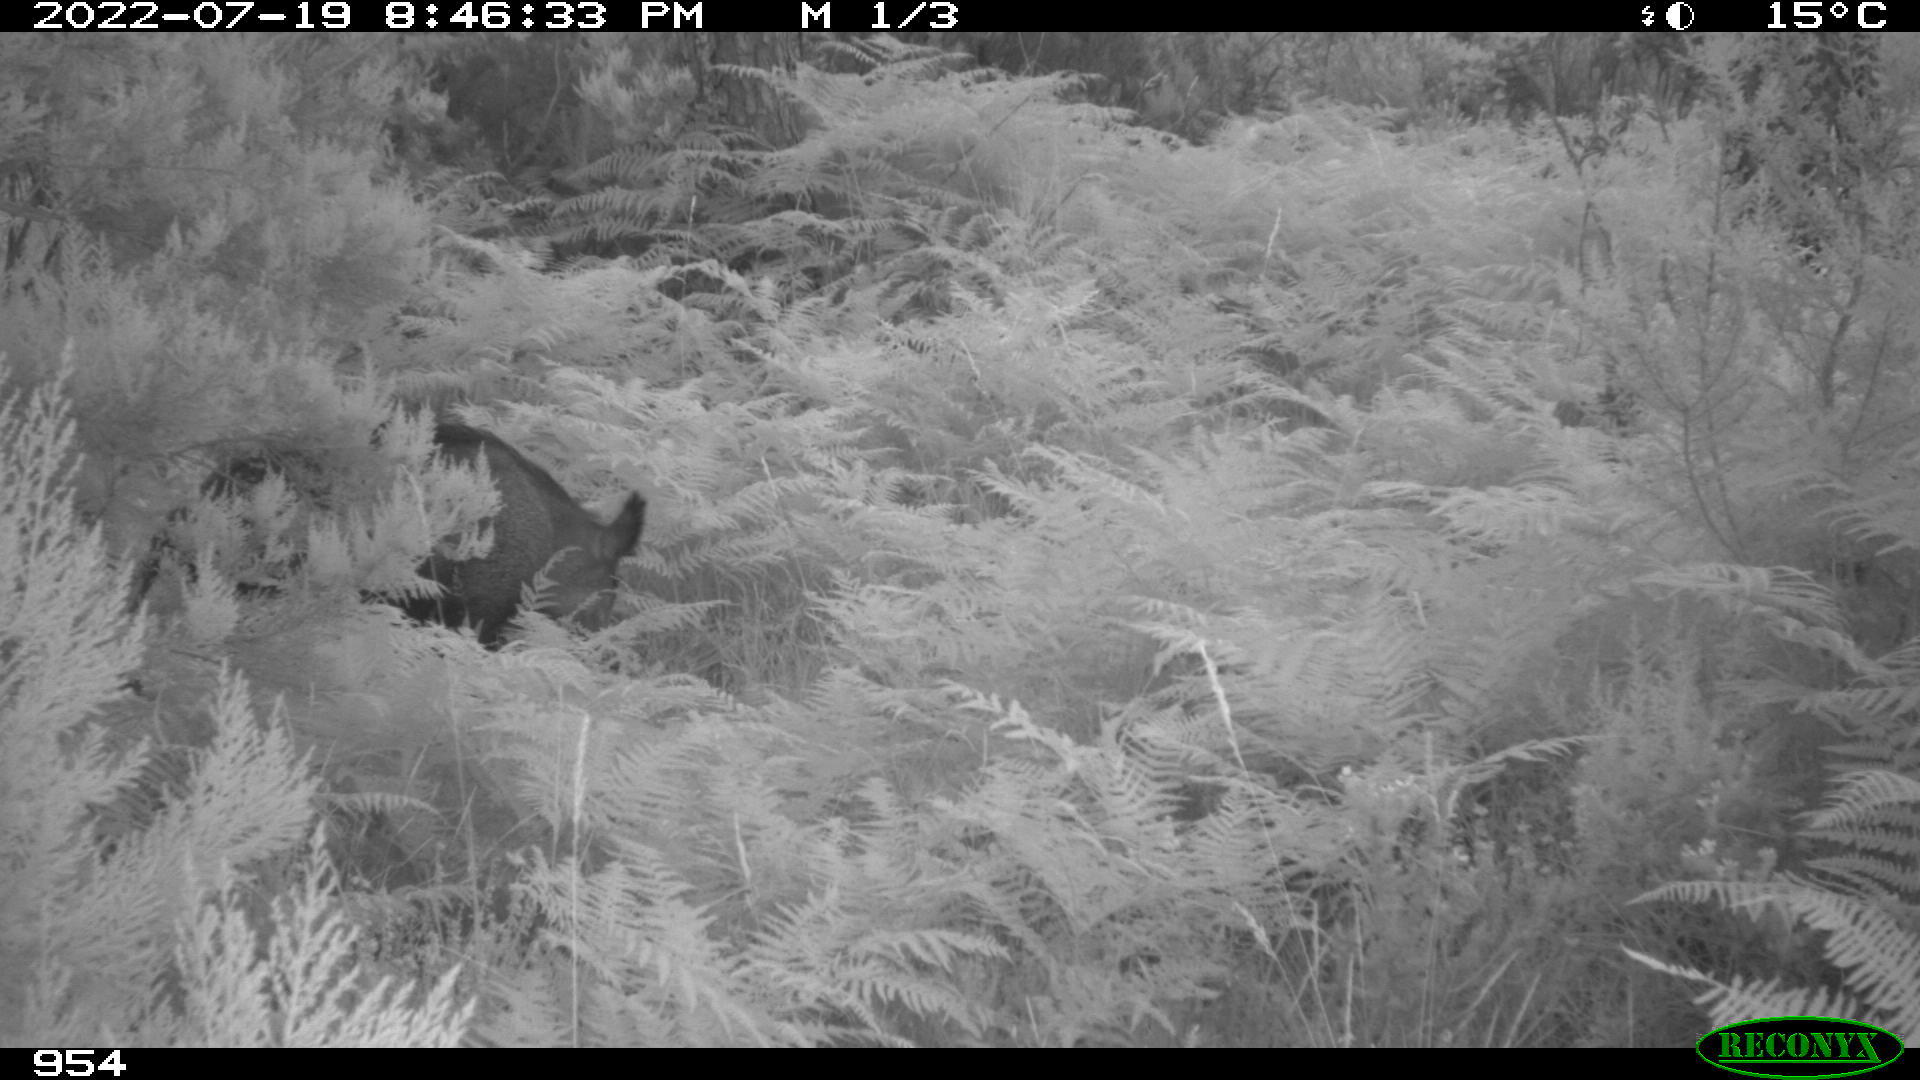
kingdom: Animalia
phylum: Chordata
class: Mammalia
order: Artiodactyla
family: Suidae
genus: Sus
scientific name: Sus scrofa
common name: Wild boar
